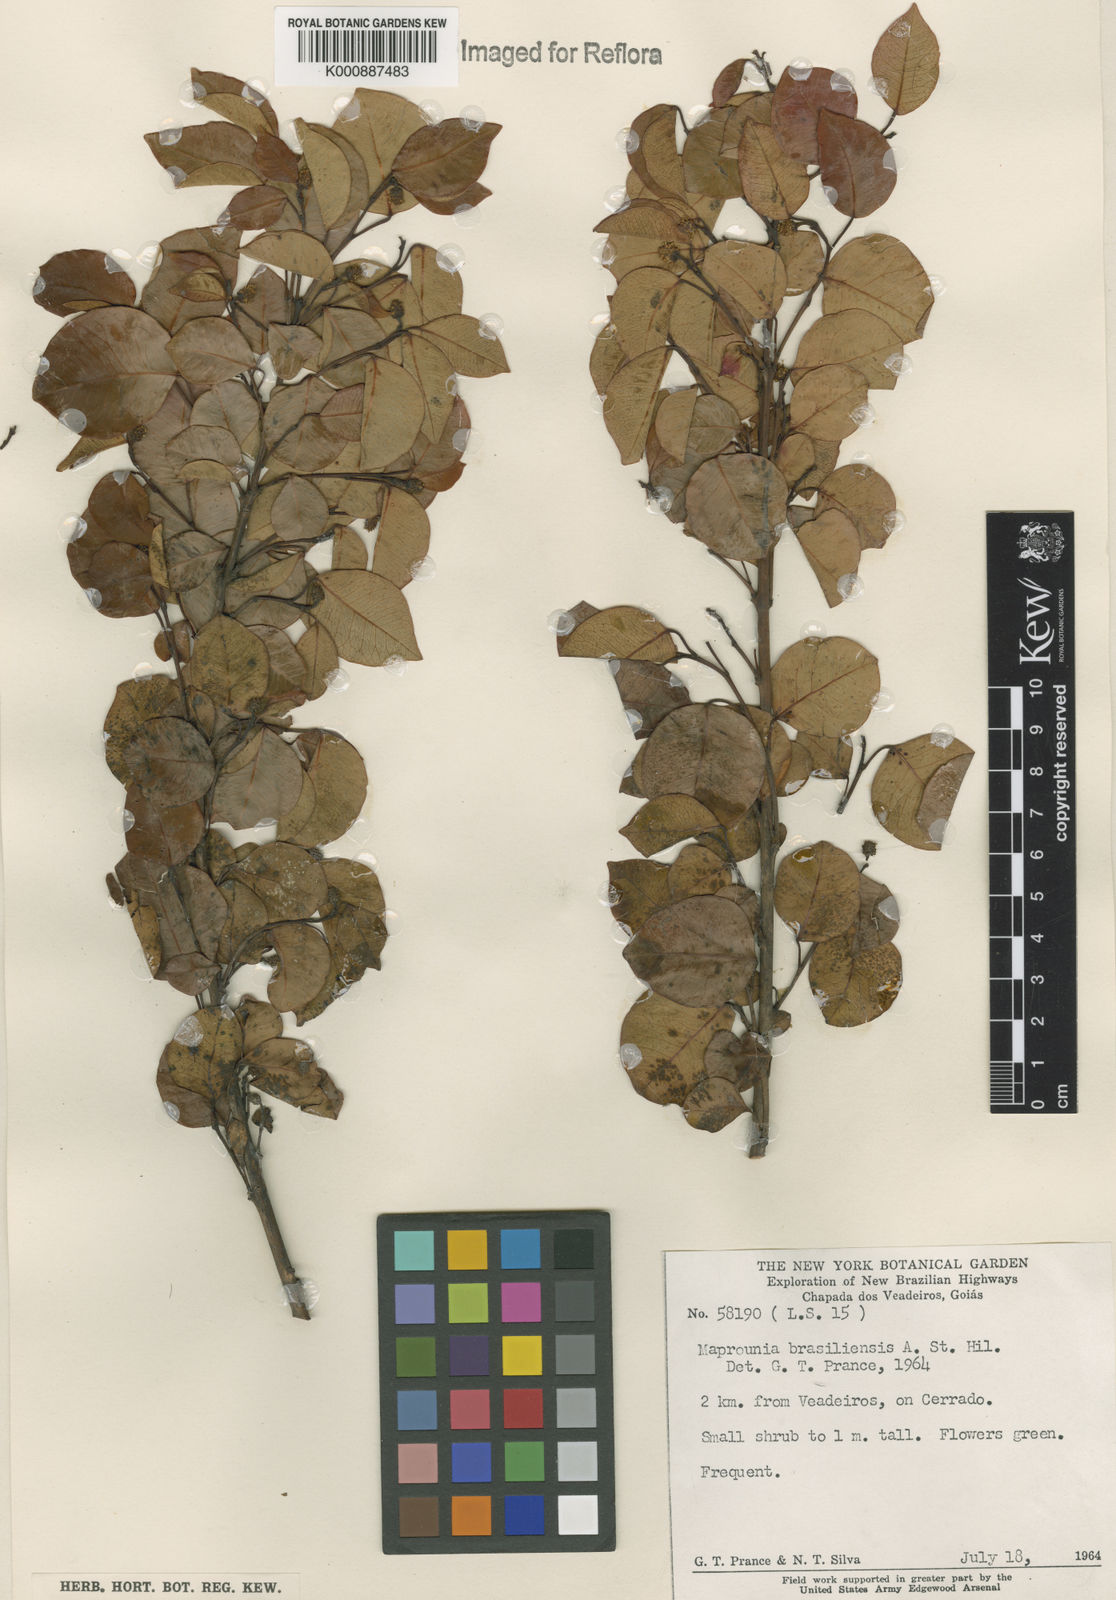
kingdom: Plantae
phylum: Tracheophyta
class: Magnoliopsida
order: Malpighiales
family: Euphorbiaceae
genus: Maprounea
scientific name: Maprounea brasiliensis
